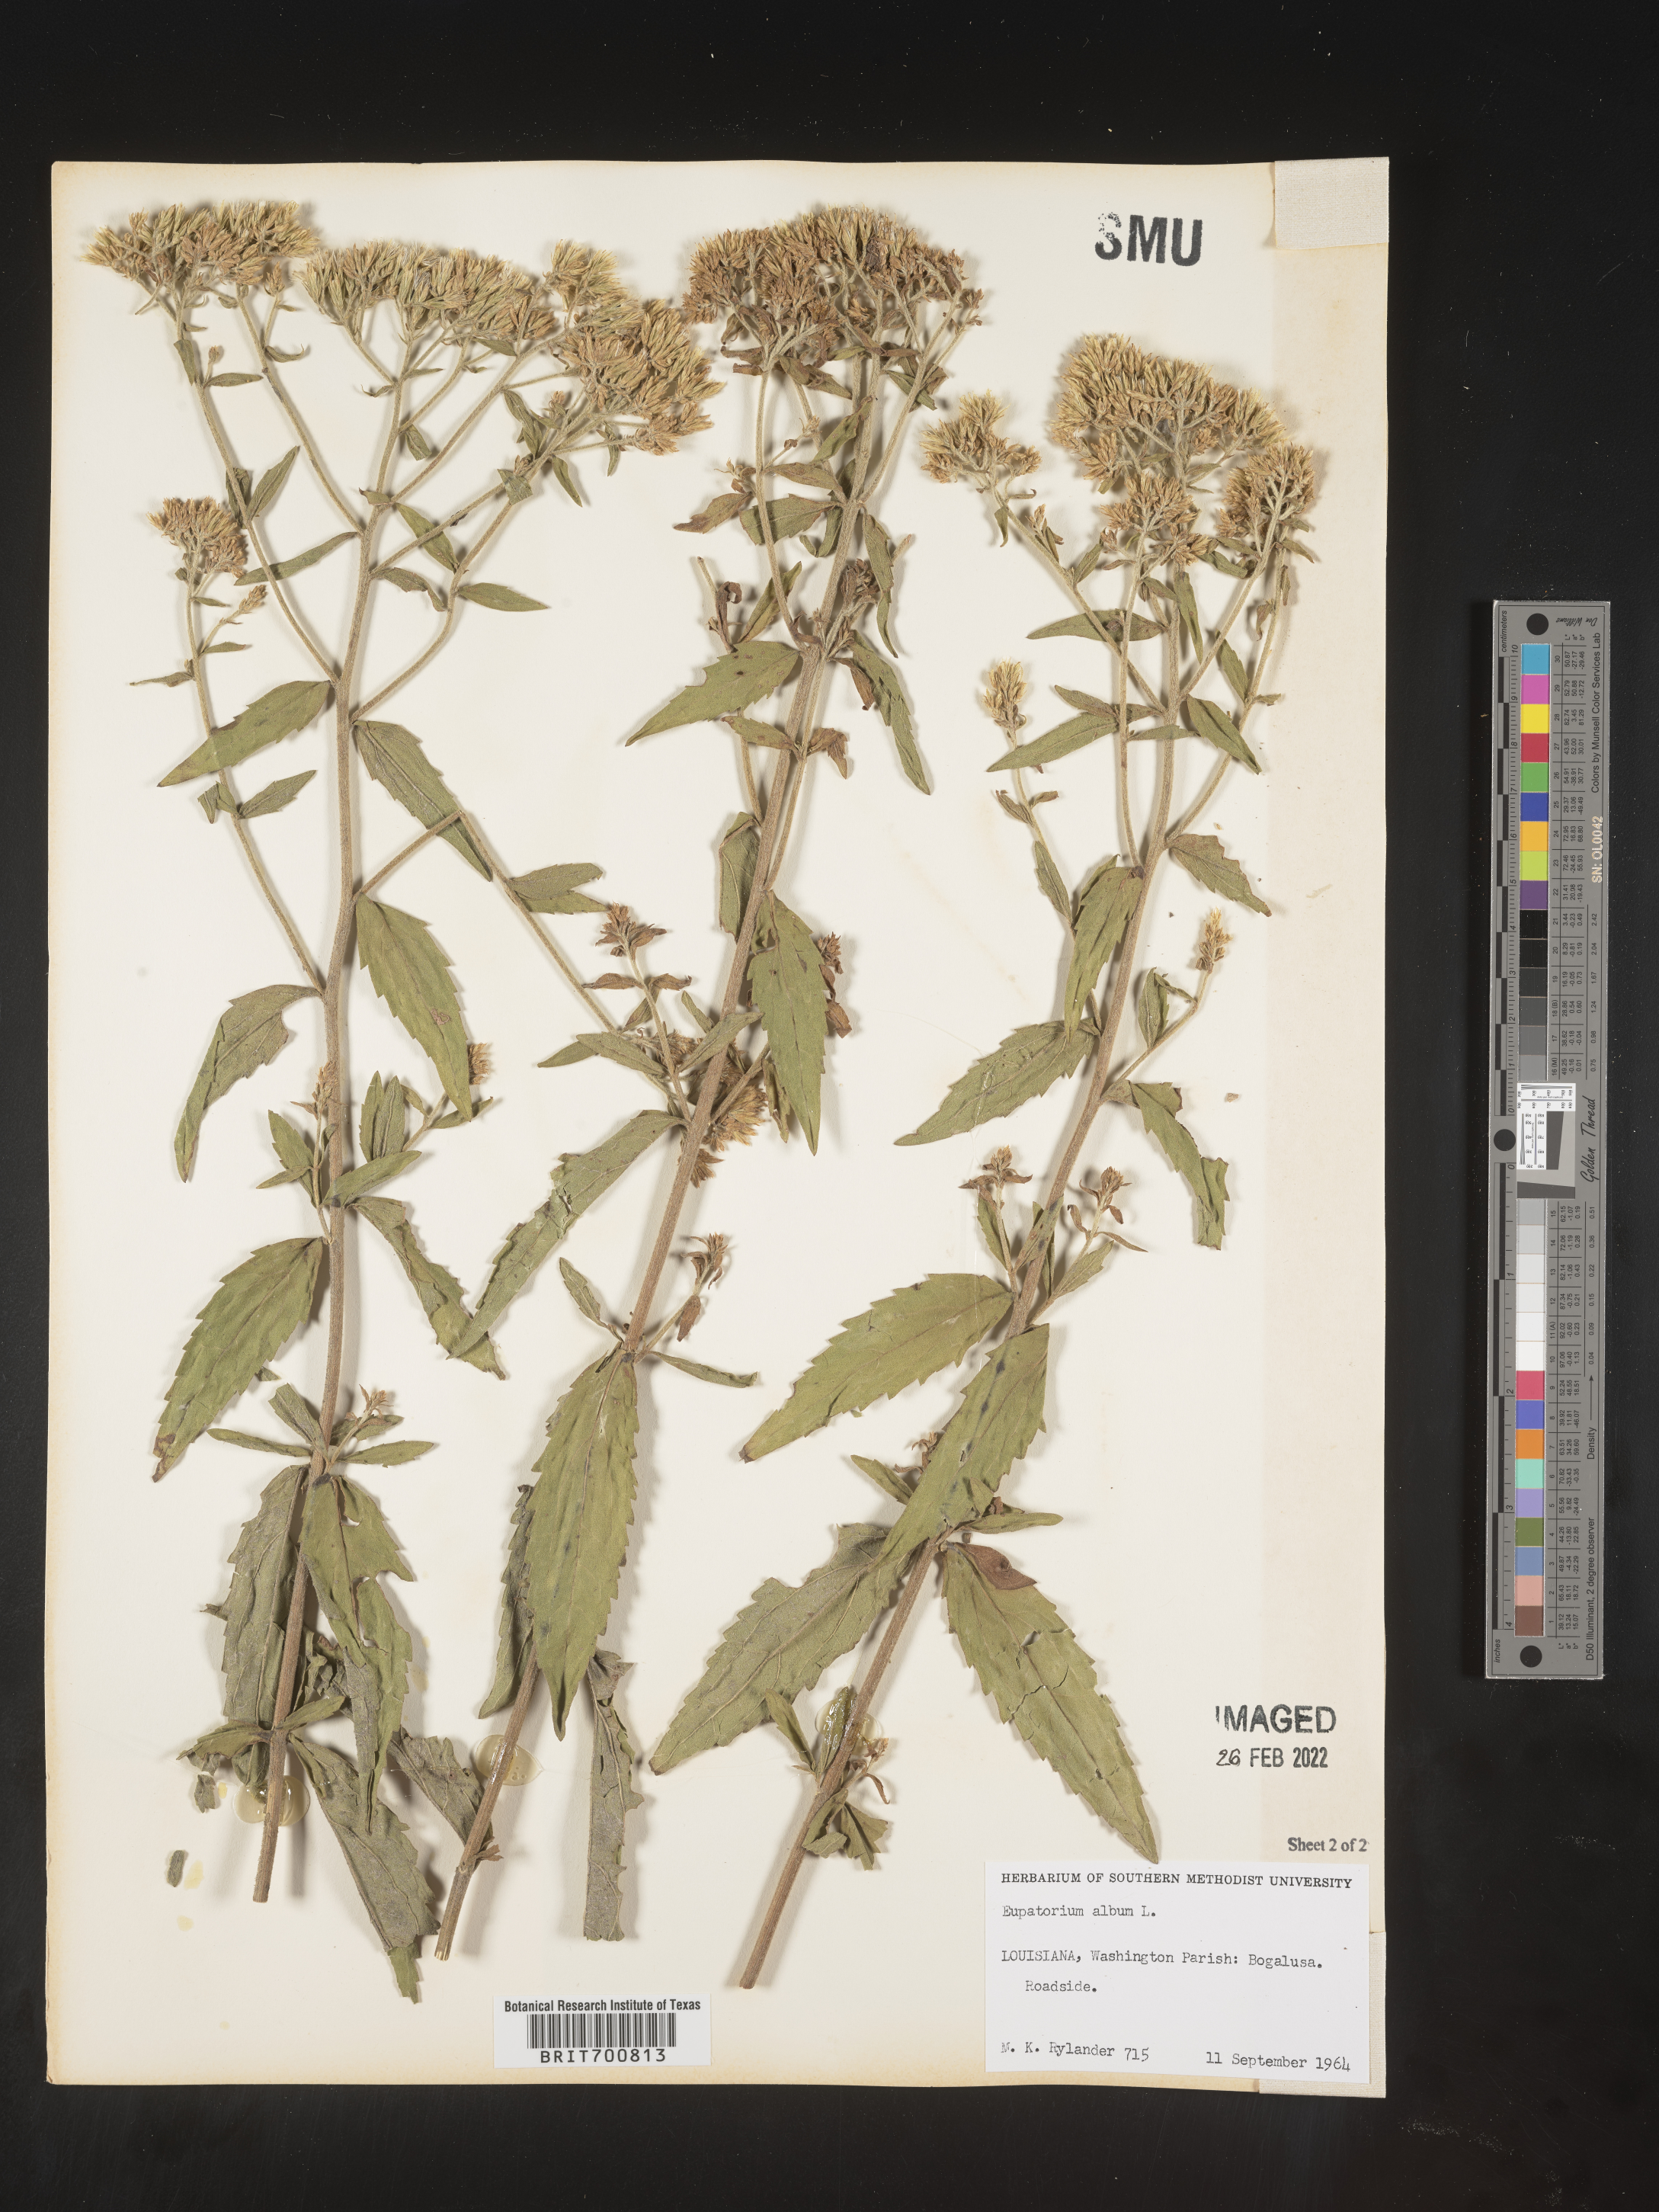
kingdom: Plantae
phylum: Tracheophyta
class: Magnoliopsida
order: Asterales
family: Asteraceae
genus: Eupatorium
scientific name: Eupatorium album
